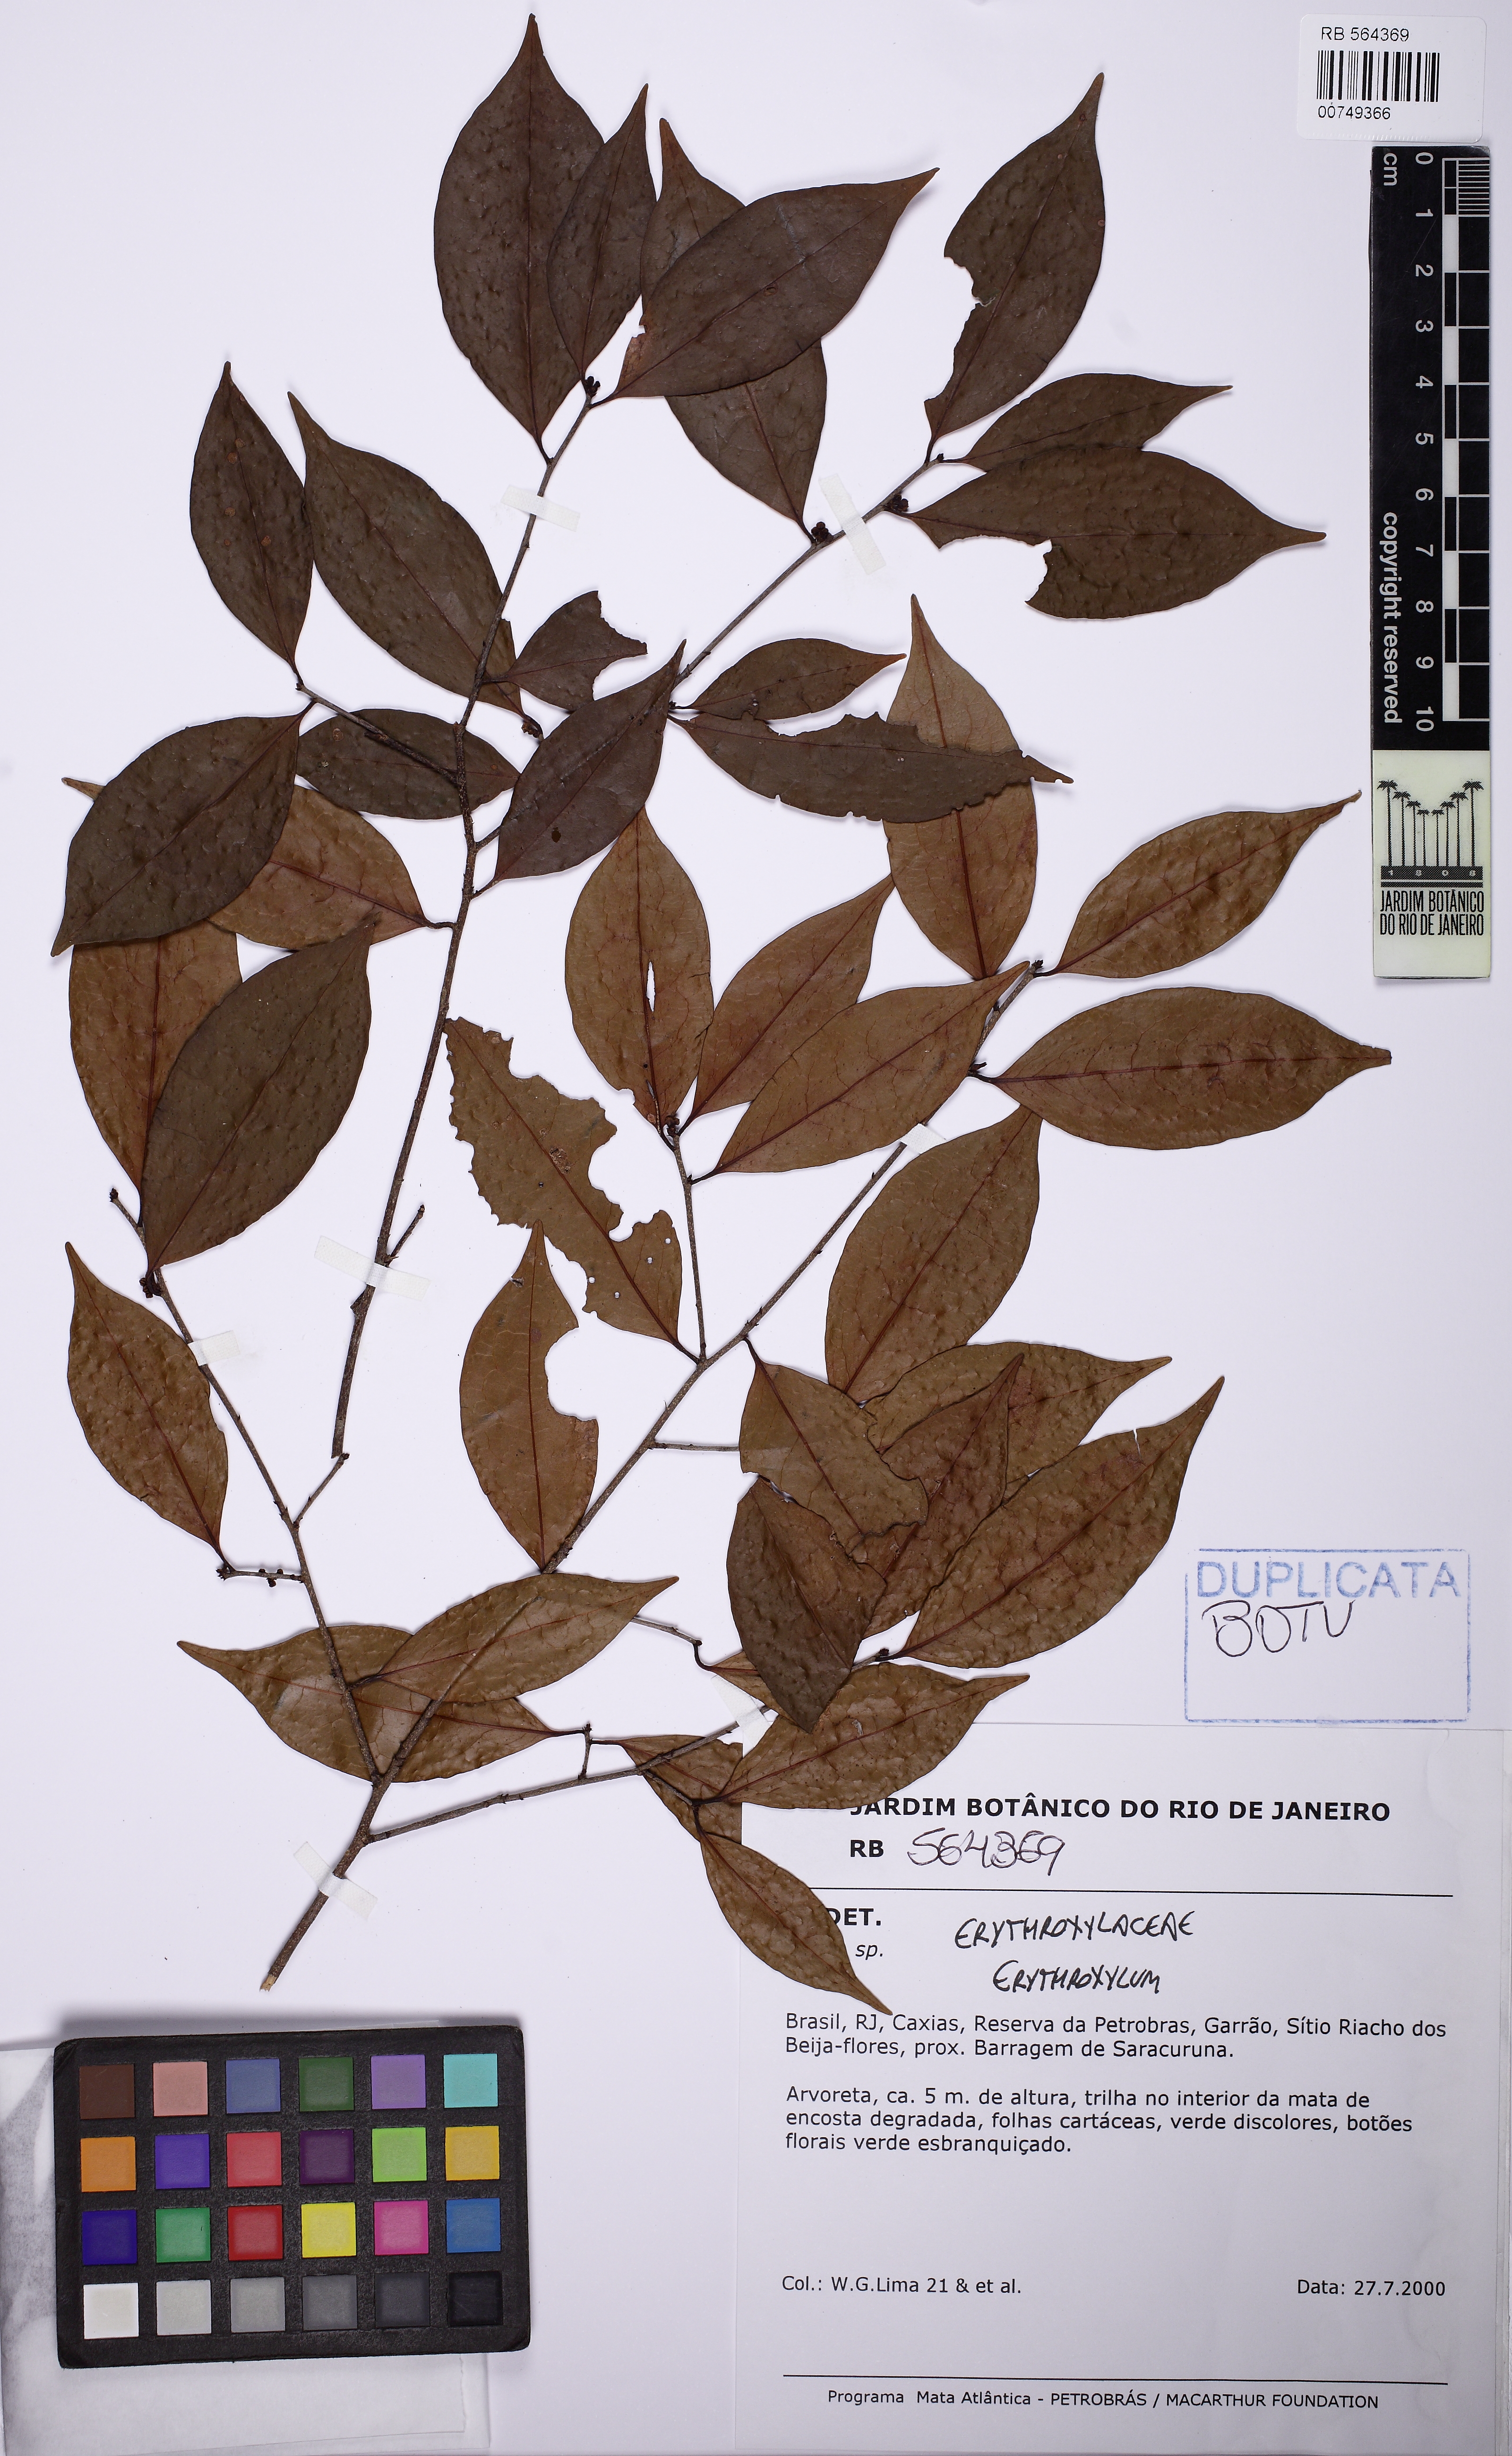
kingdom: Plantae
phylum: Tracheophyta
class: Magnoliopsida
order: Malpighiales
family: Erythroxylaceae
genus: Erythroxylum
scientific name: Erythroxylum cuspidifolium
